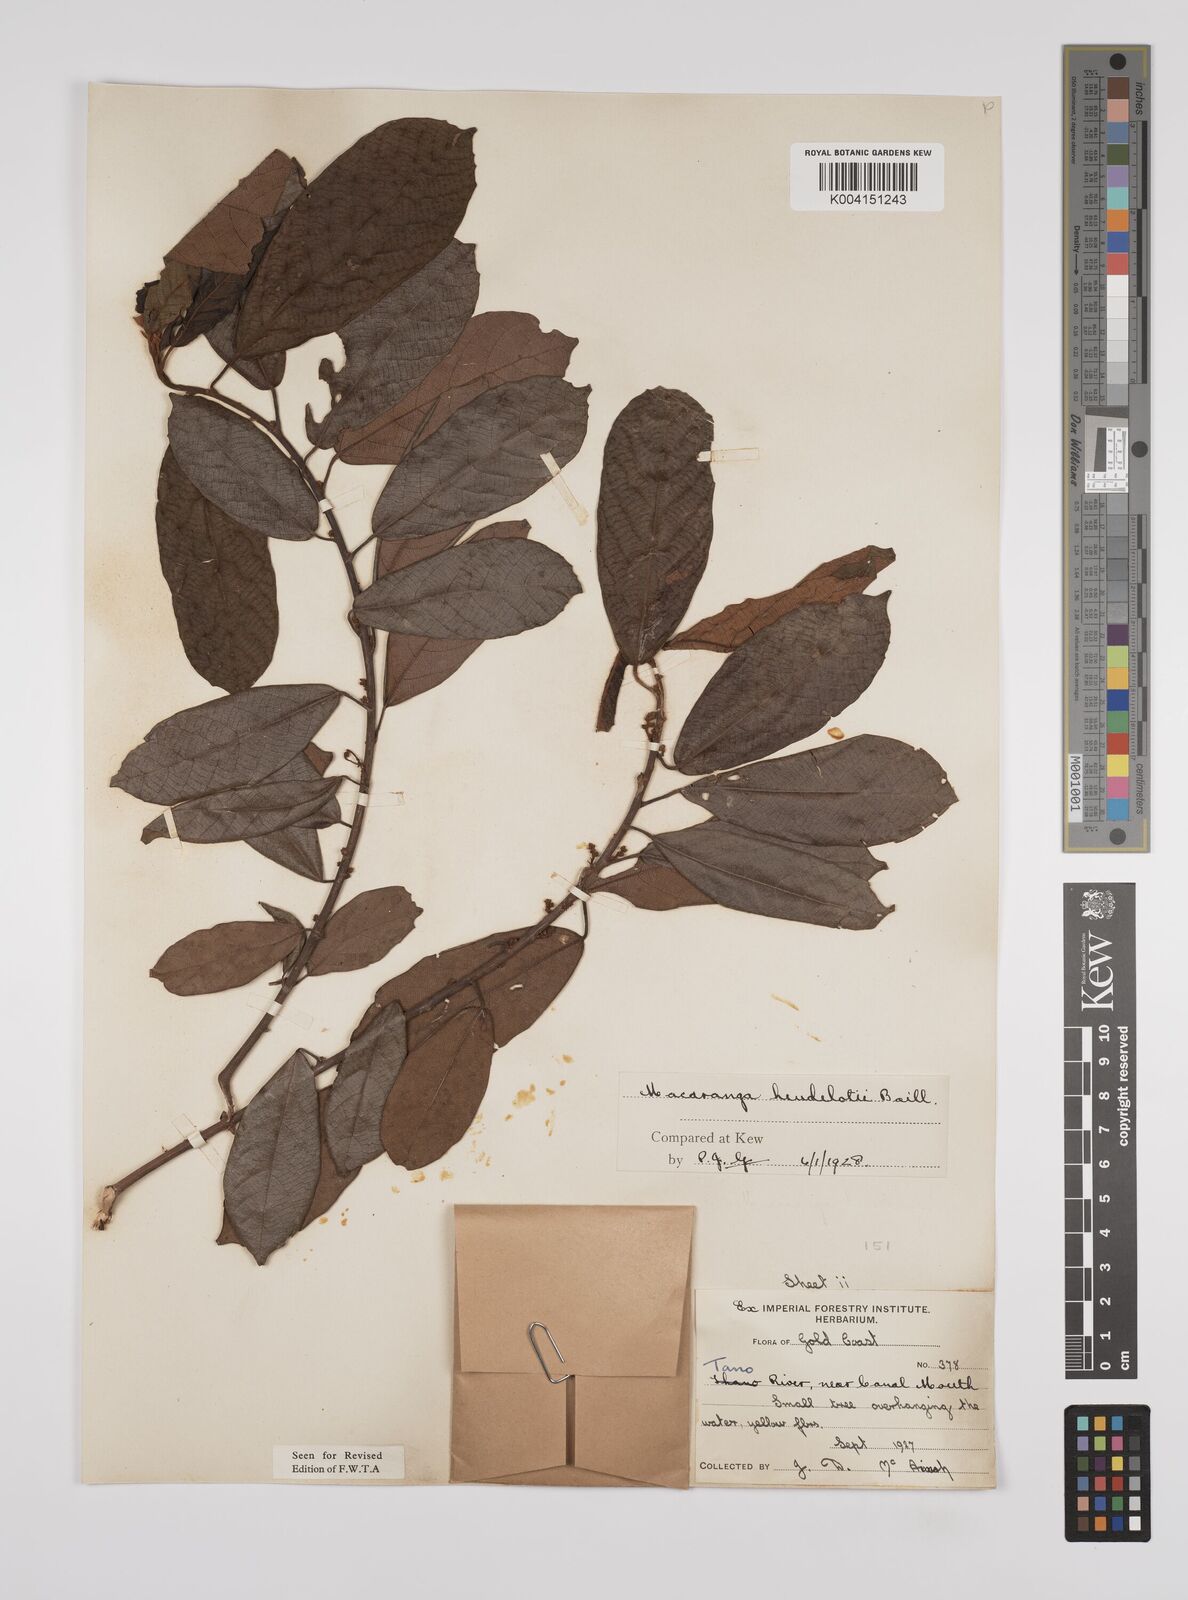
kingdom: Plantae
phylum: Tracheophyta
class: Magnoliopsida
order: Malpighiales
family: Euphorbiaceae
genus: Macaranga
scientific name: Macaranga heudelotii
